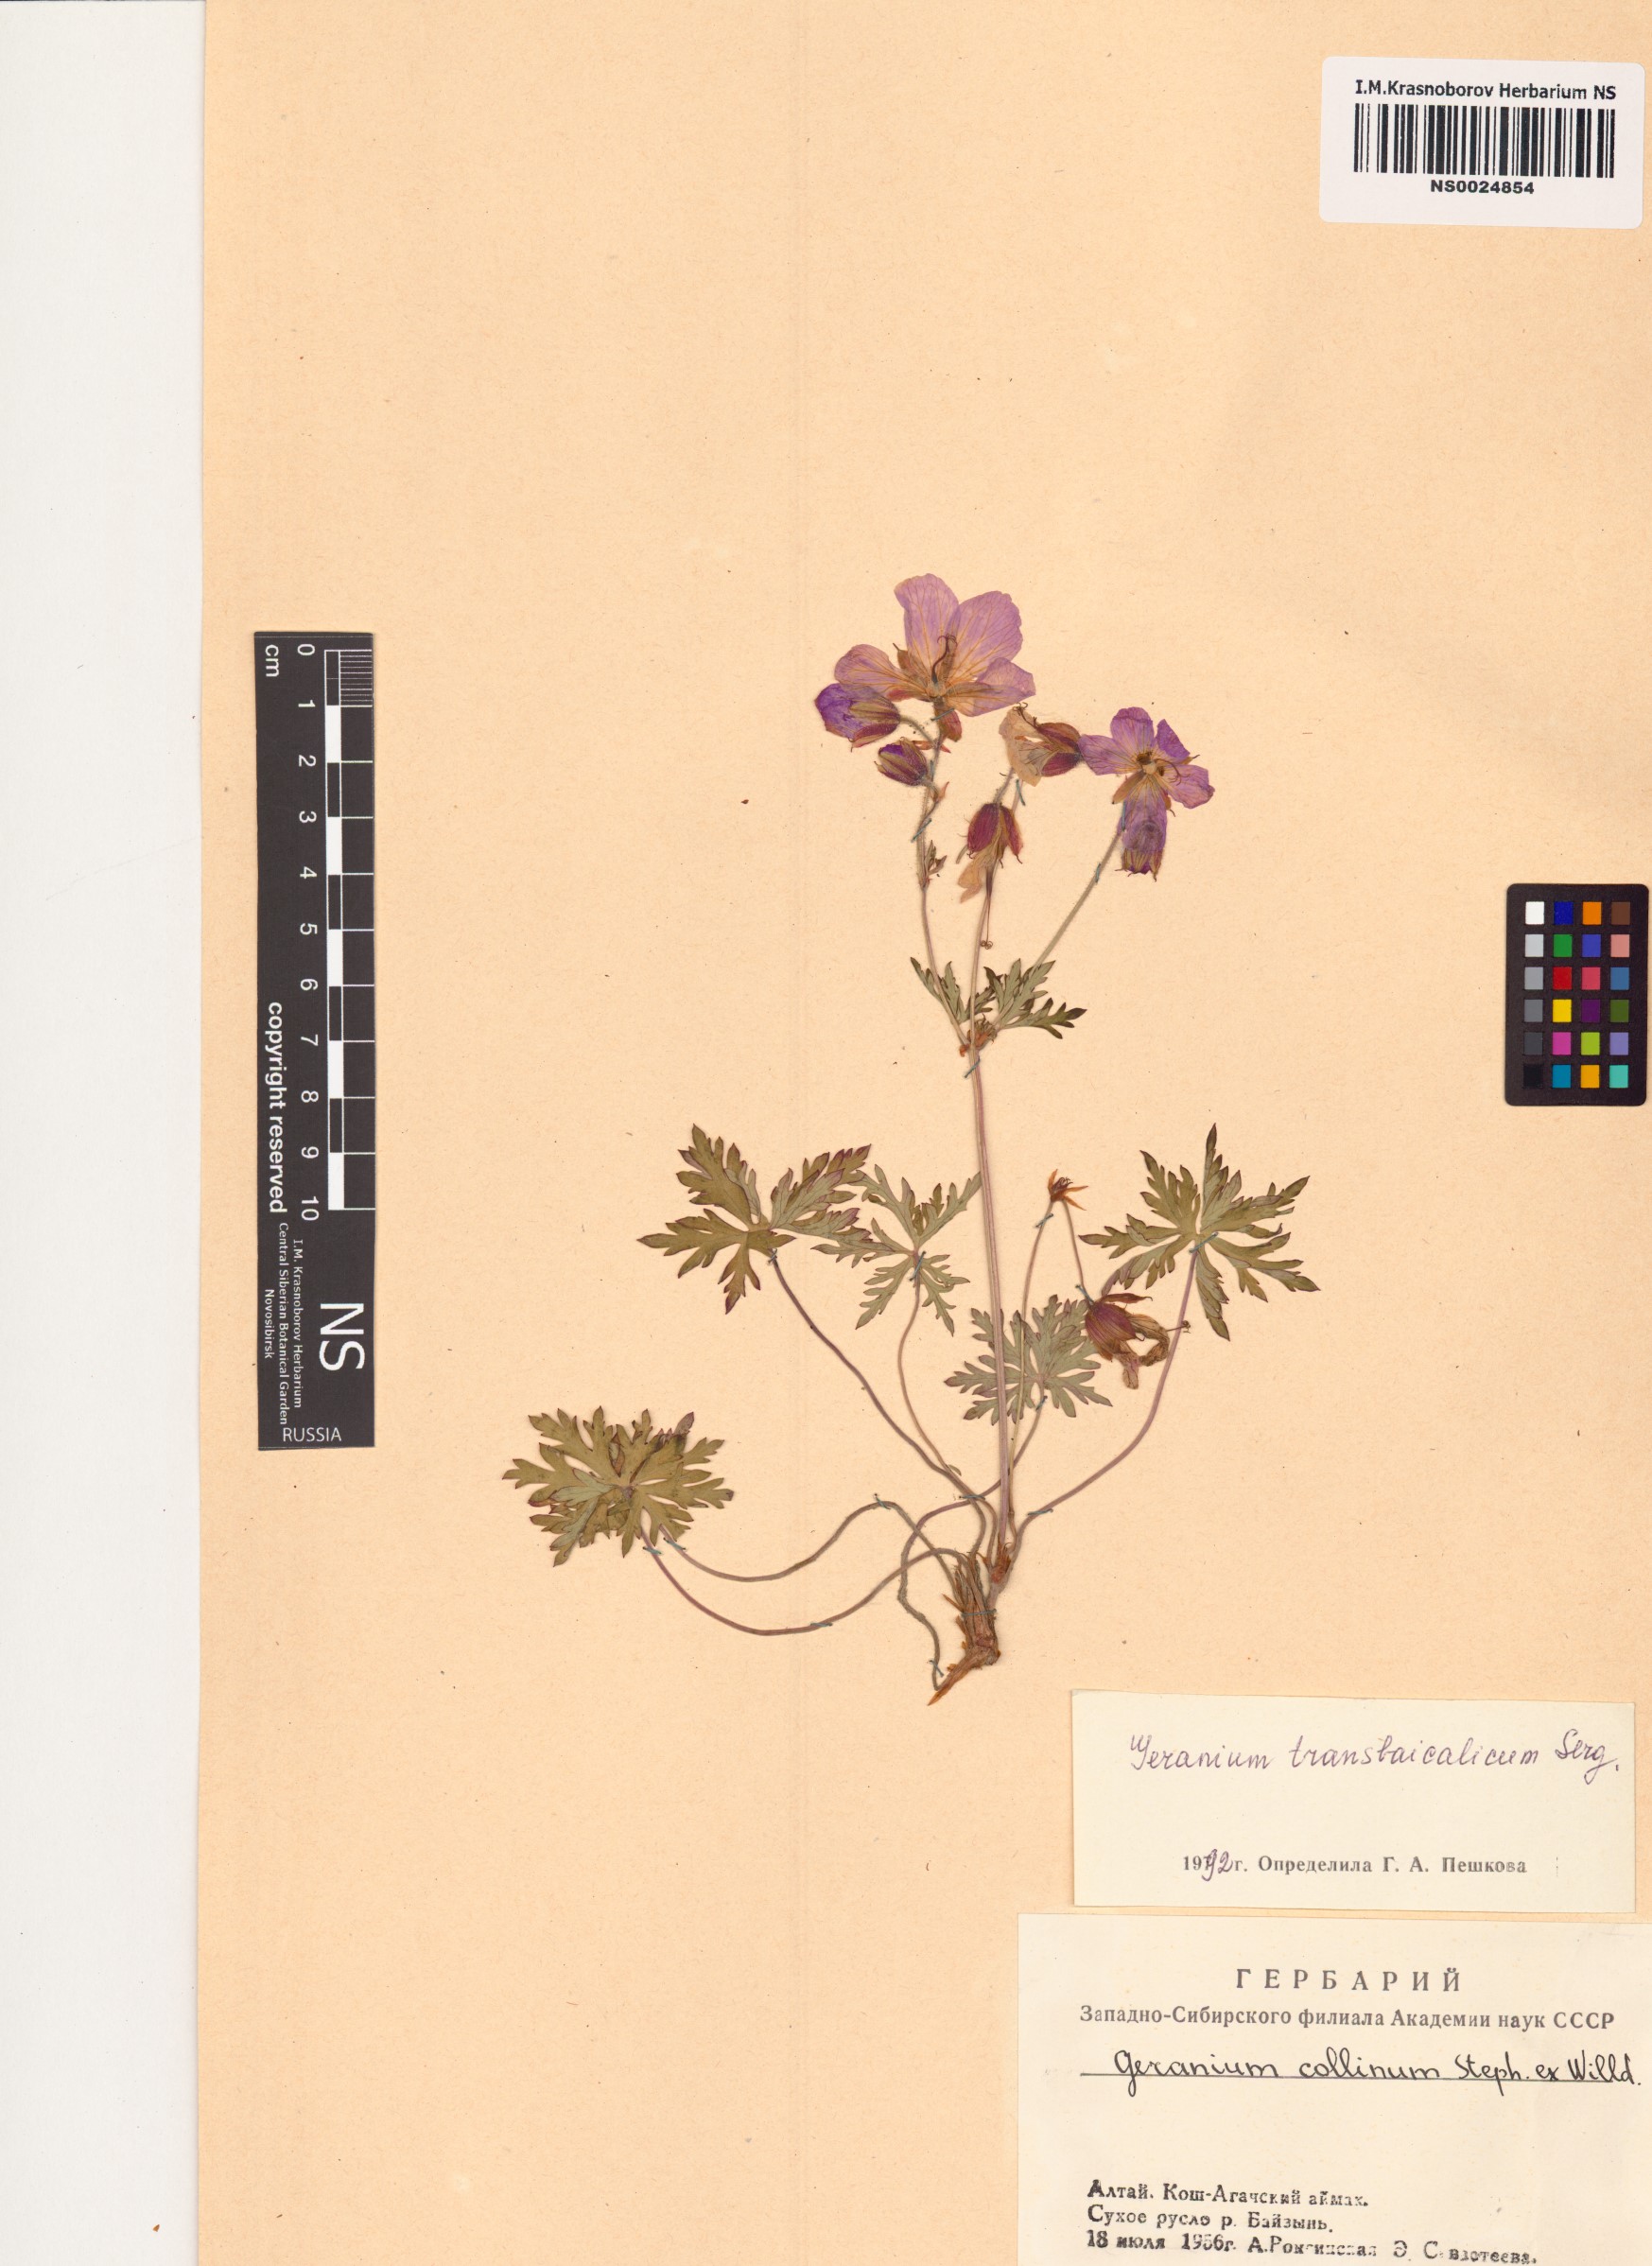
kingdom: Plantae
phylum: Tracheophyta
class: Magnoliopsida
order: Geraniales
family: Geraniaceae
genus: Geranium
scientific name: Geranium pratense
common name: Meadow crane's-bill
